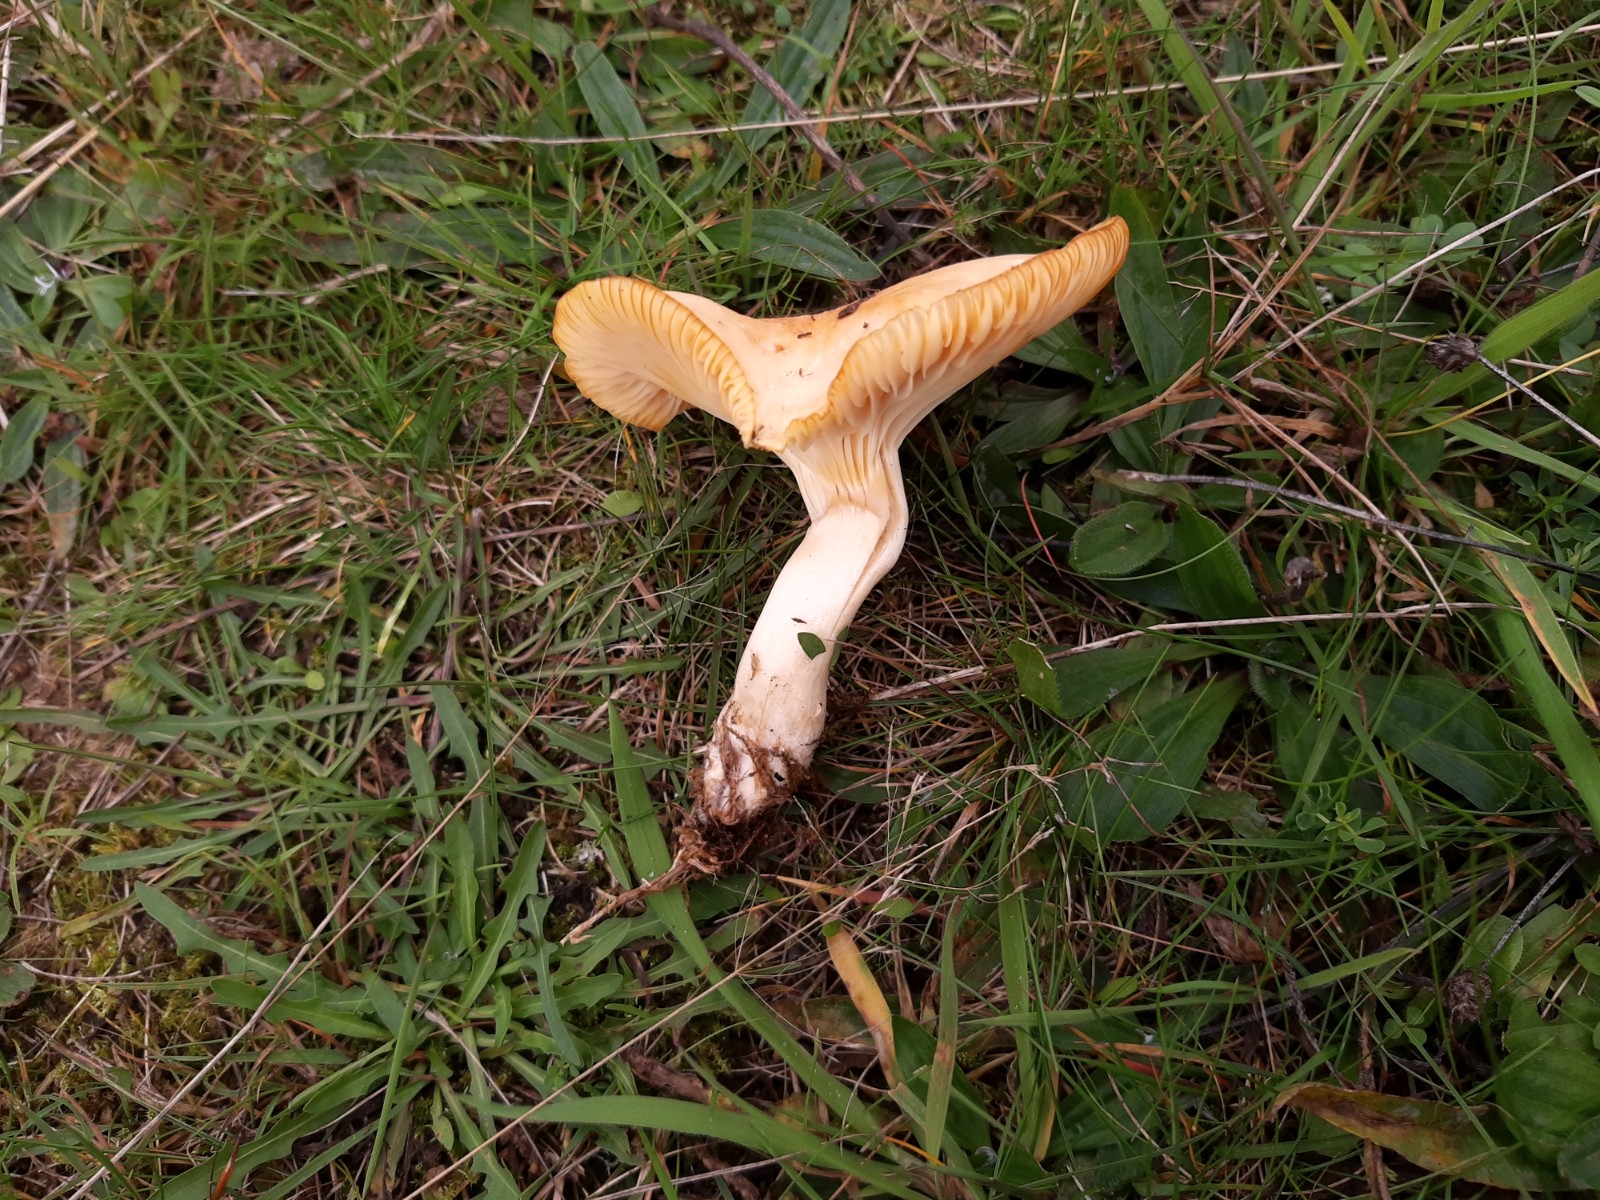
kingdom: Fungi
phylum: Basidiomycota
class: Agaricomycetes
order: Agaricales
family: Hygrophoraceae
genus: Cuphophyllus
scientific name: Cuphophyllus pratensis
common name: eng-vokshat
